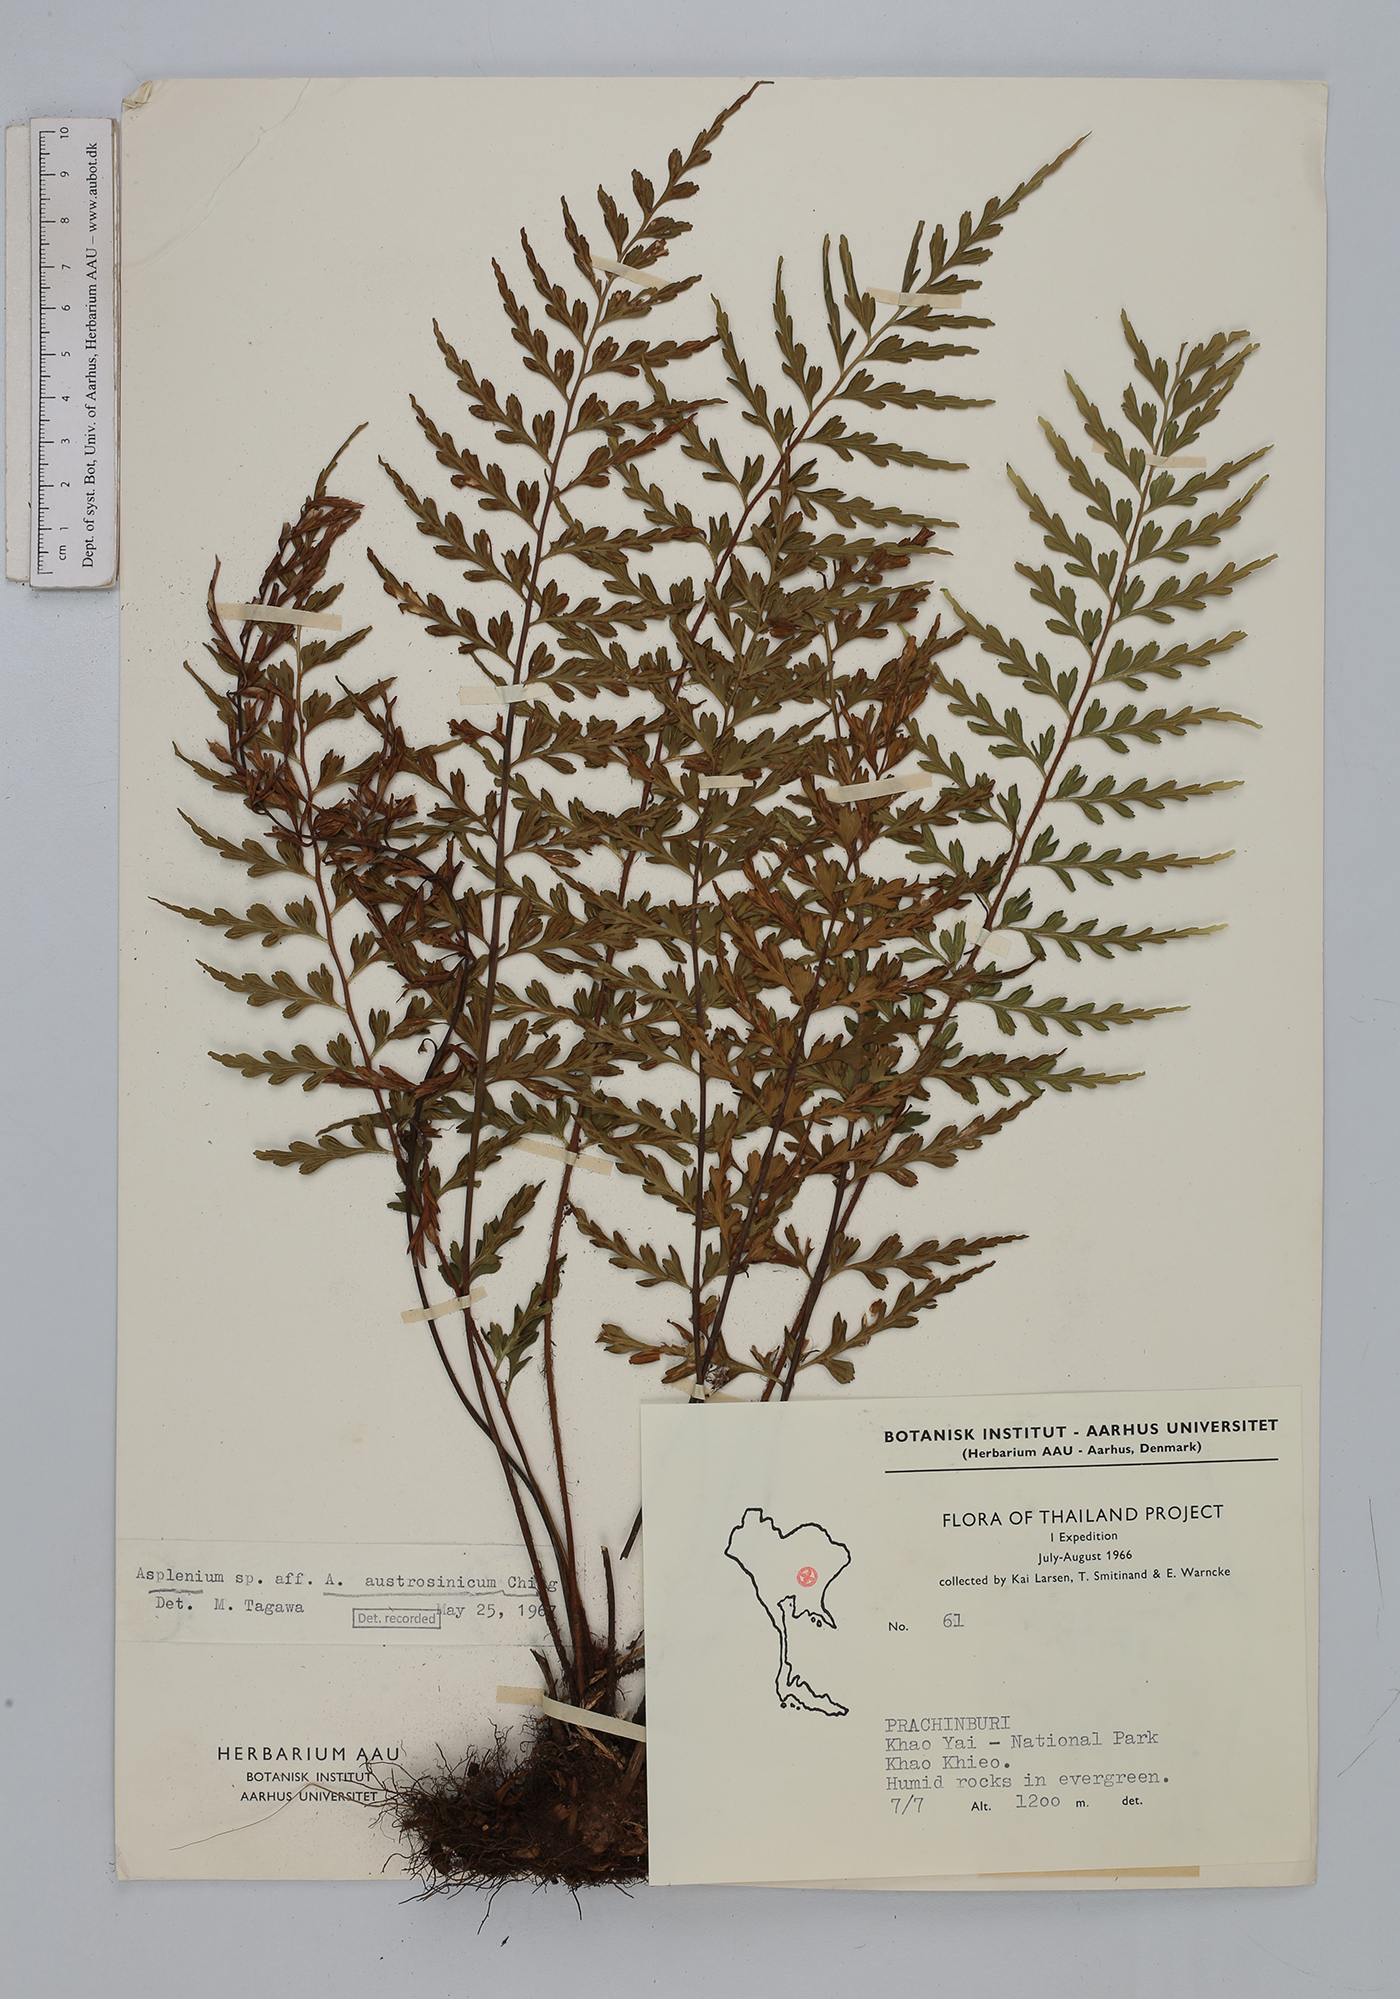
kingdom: Plantae
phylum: Tracheophyta
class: Polypodiopsida
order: Polypodiales
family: Aspleniaceae
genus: Asplenium
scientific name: Asplenium austrochinense
